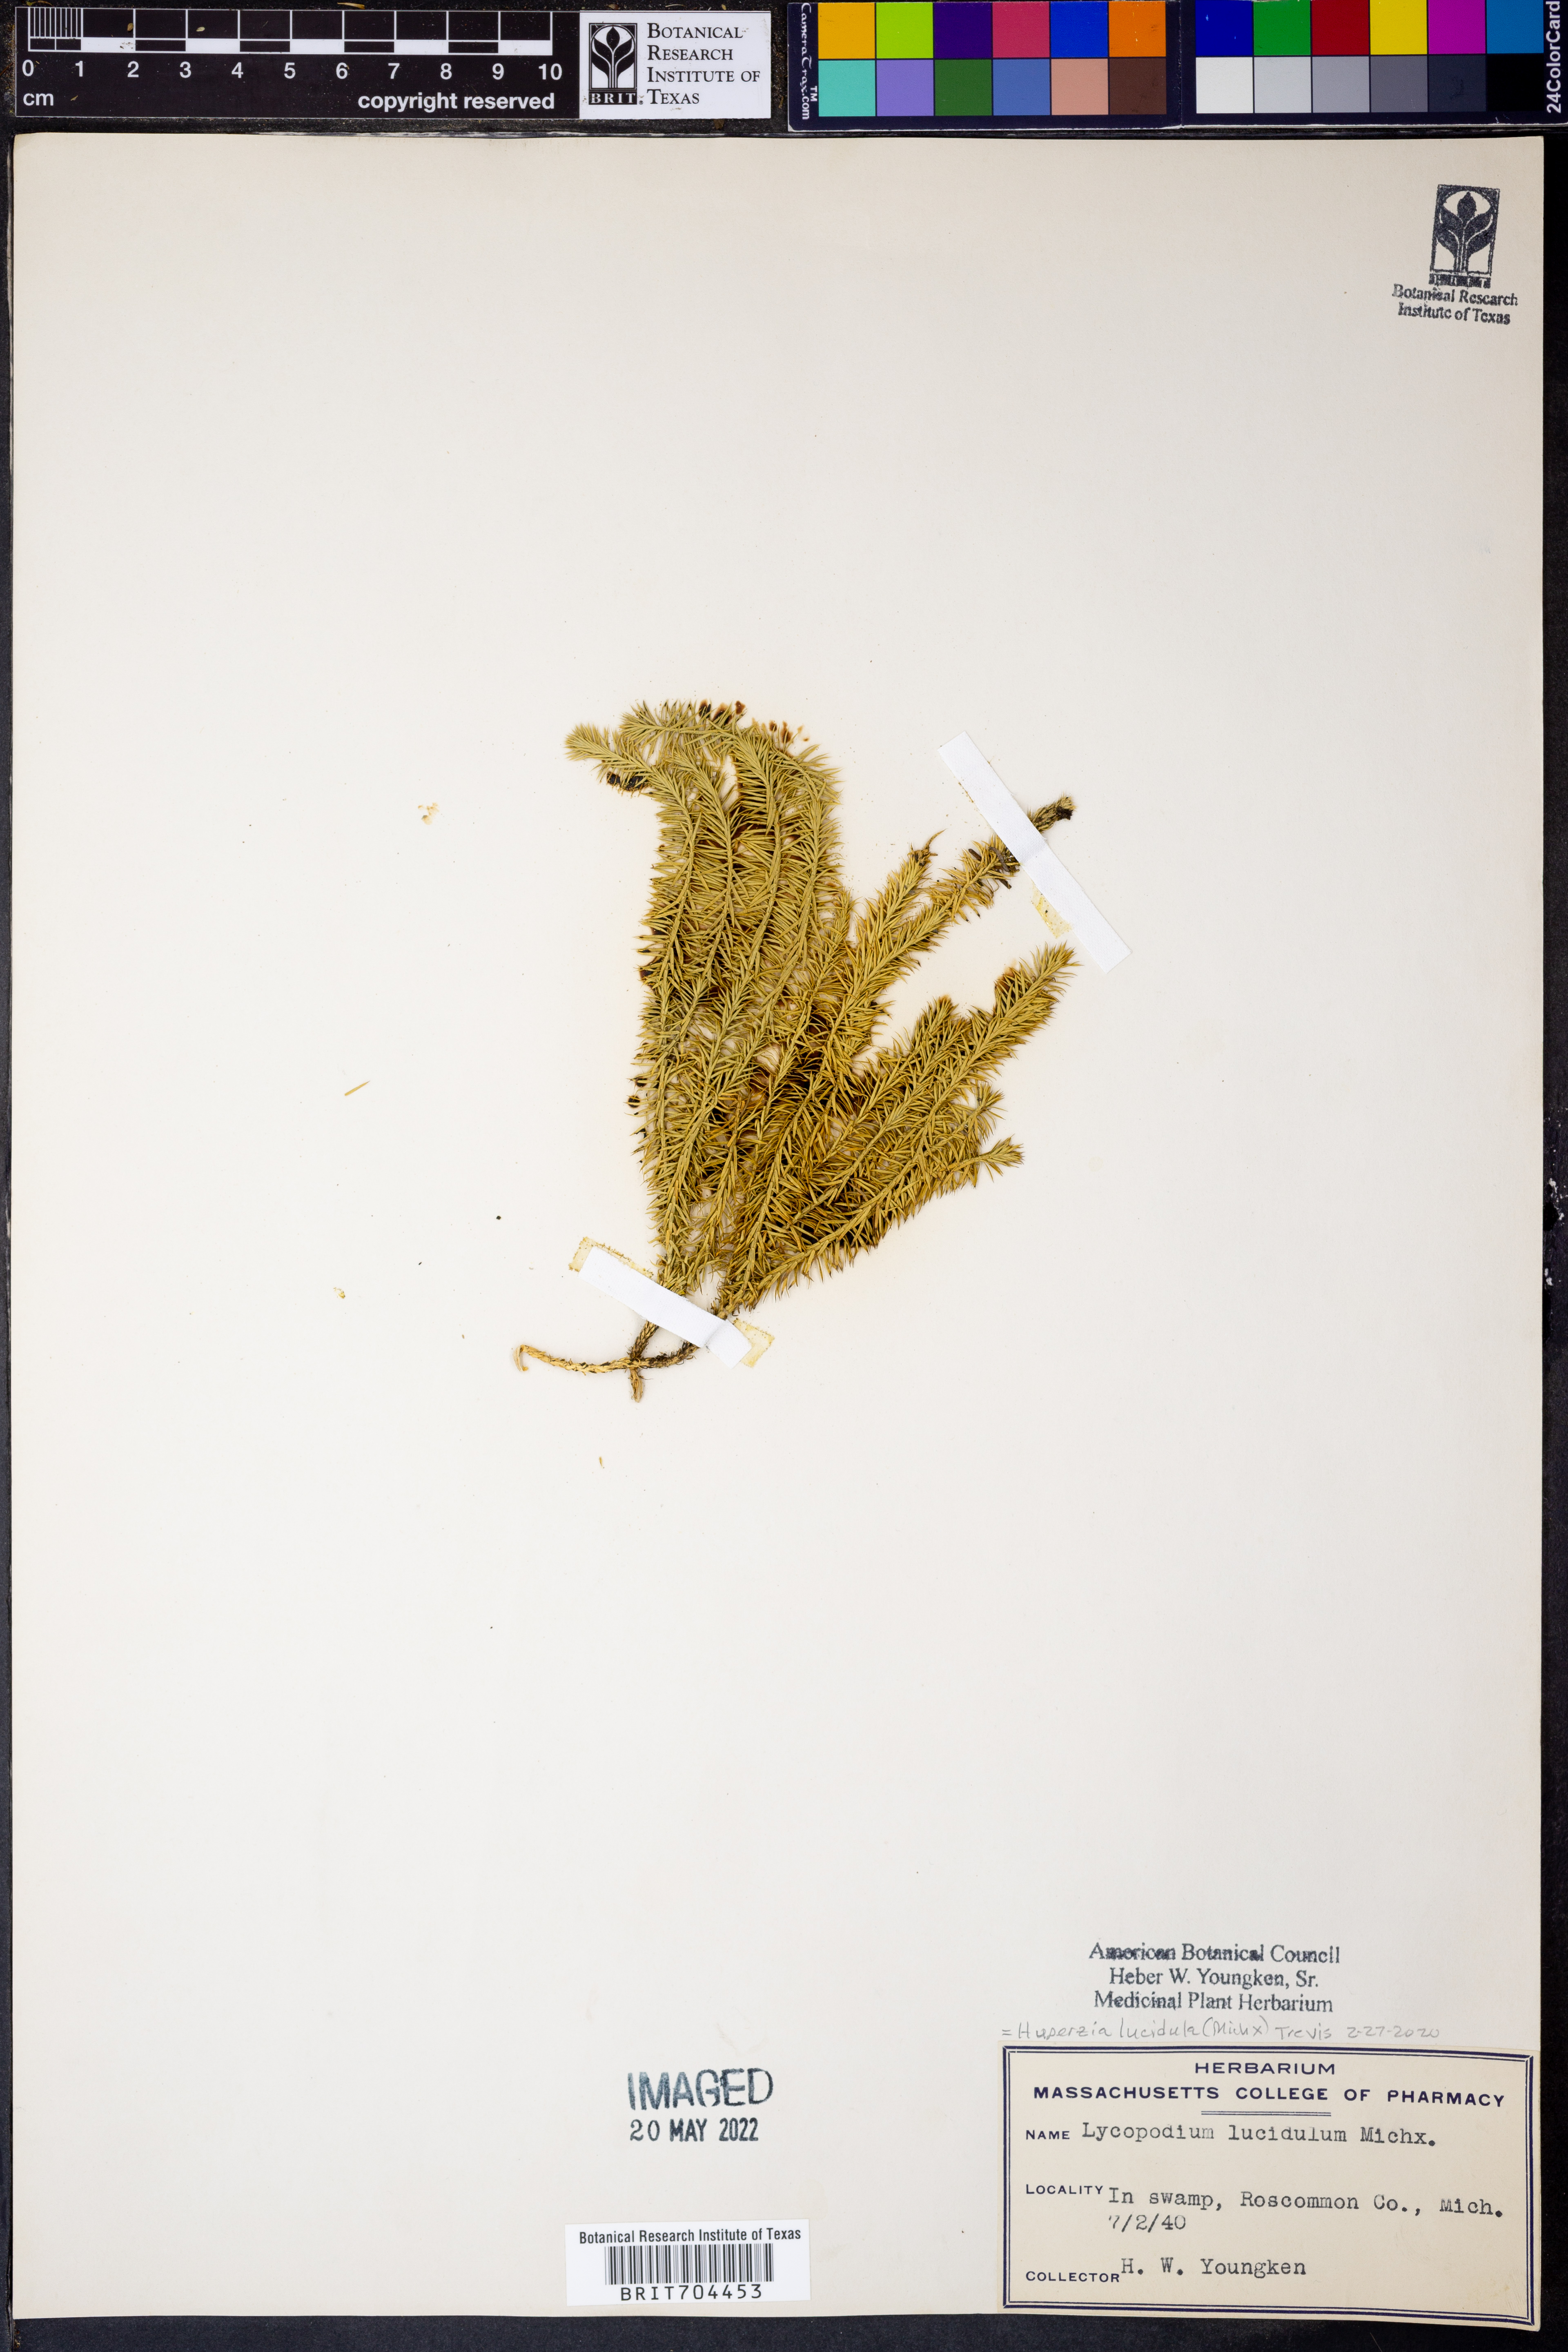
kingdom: Plantae
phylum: Tracheophyta
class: Lycopodiopsida
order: Lycopodiales
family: Lycopodiaceae
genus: Huperzia
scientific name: Huperzia lucidula
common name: Shining clubmoss
